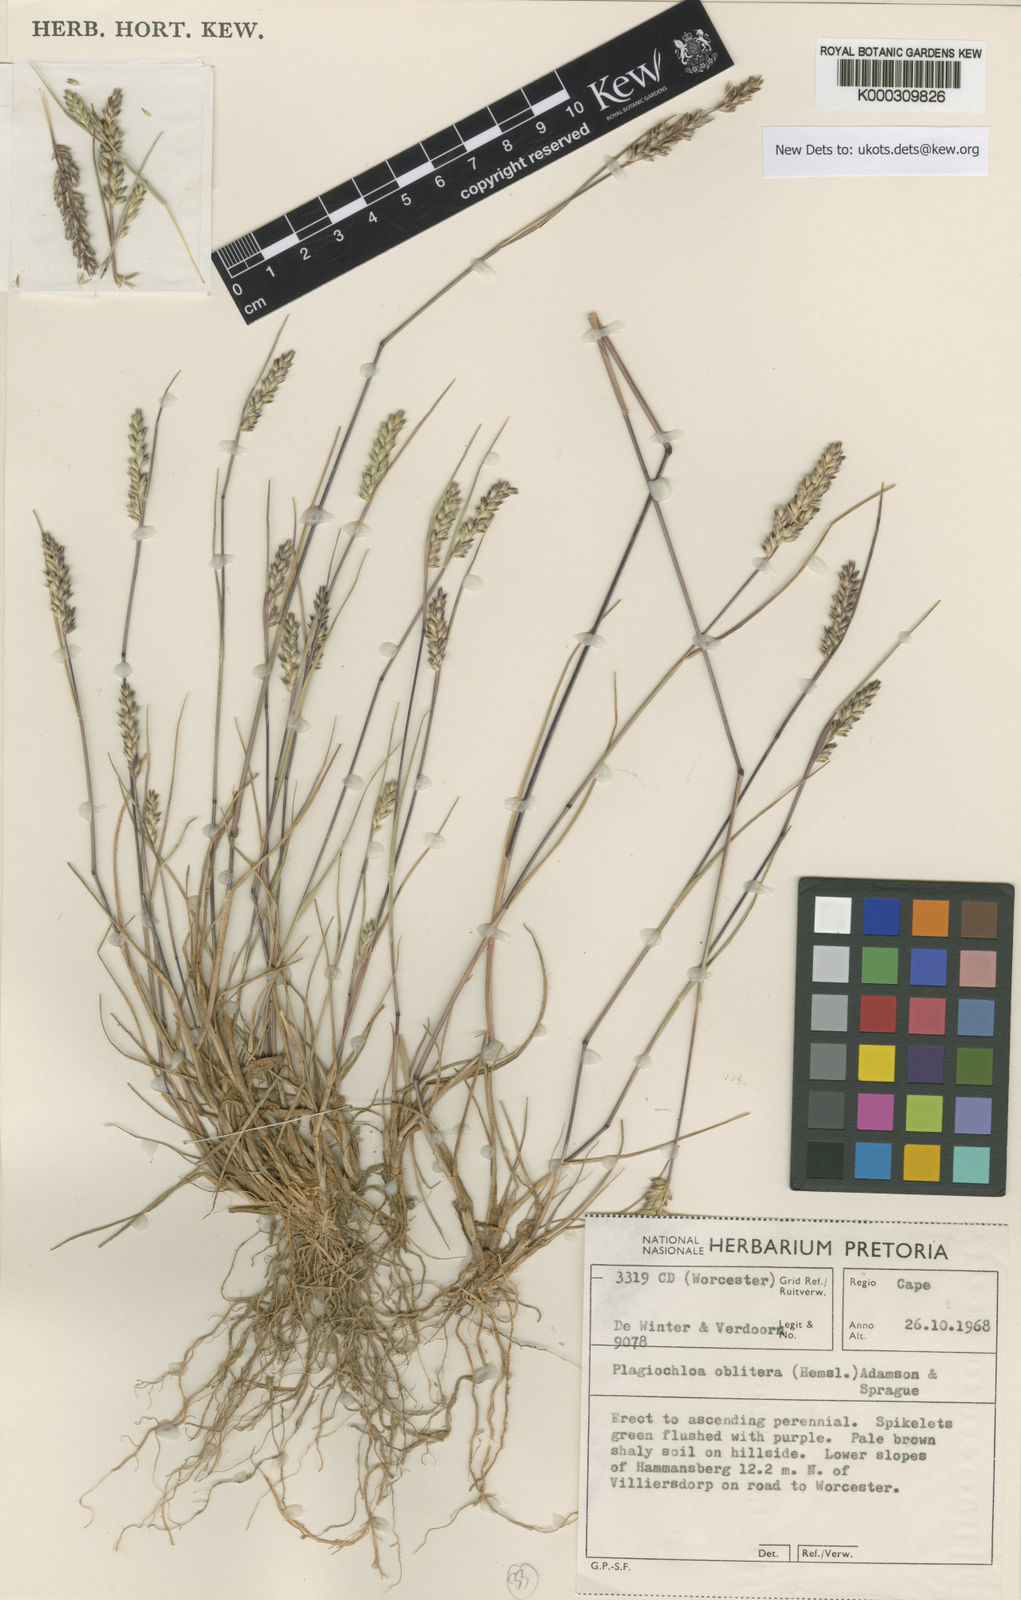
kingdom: Plantae
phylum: Tracheophyta
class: Liliopsida
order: Poales
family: Poaceae
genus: Tribolium
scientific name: Tribolium obliterum
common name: Capetown grass
